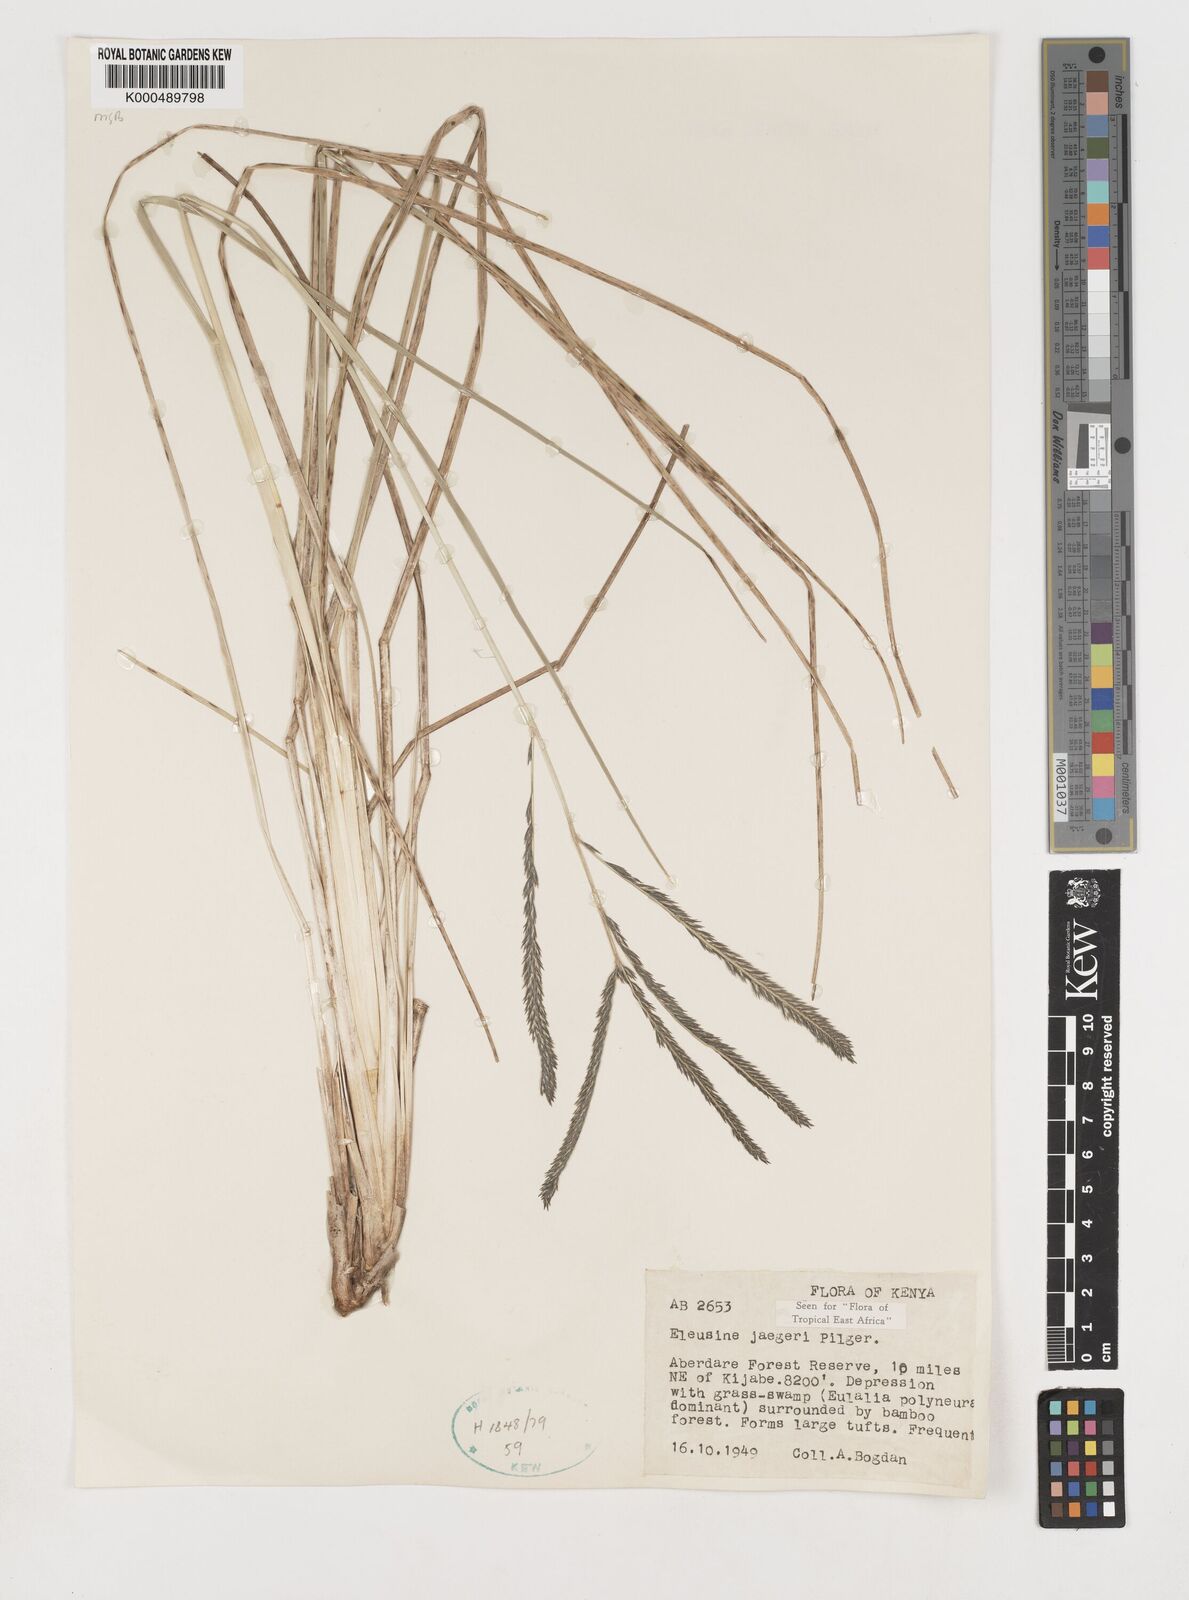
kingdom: Plantae
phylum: Tracheophyta
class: Liliopsida
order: Poales
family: Poaceae
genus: Eleusine
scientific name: Eleusine jaegeri
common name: Manyatta grass
